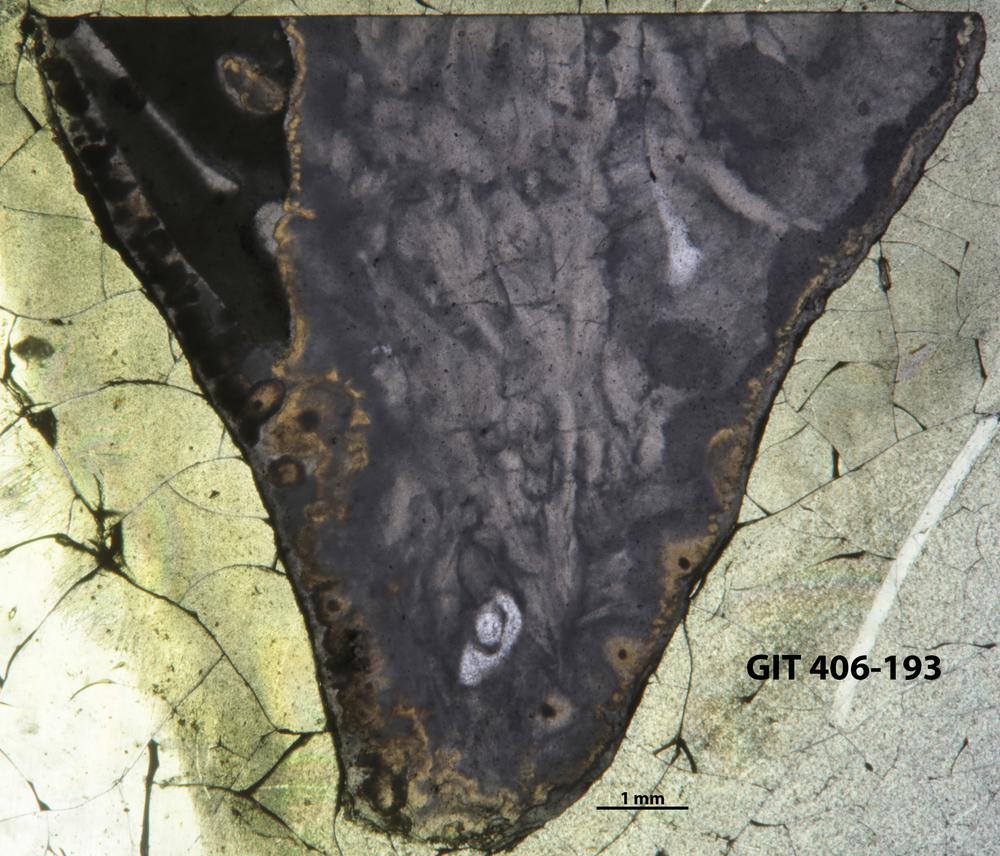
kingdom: Animalia
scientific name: Animalia
